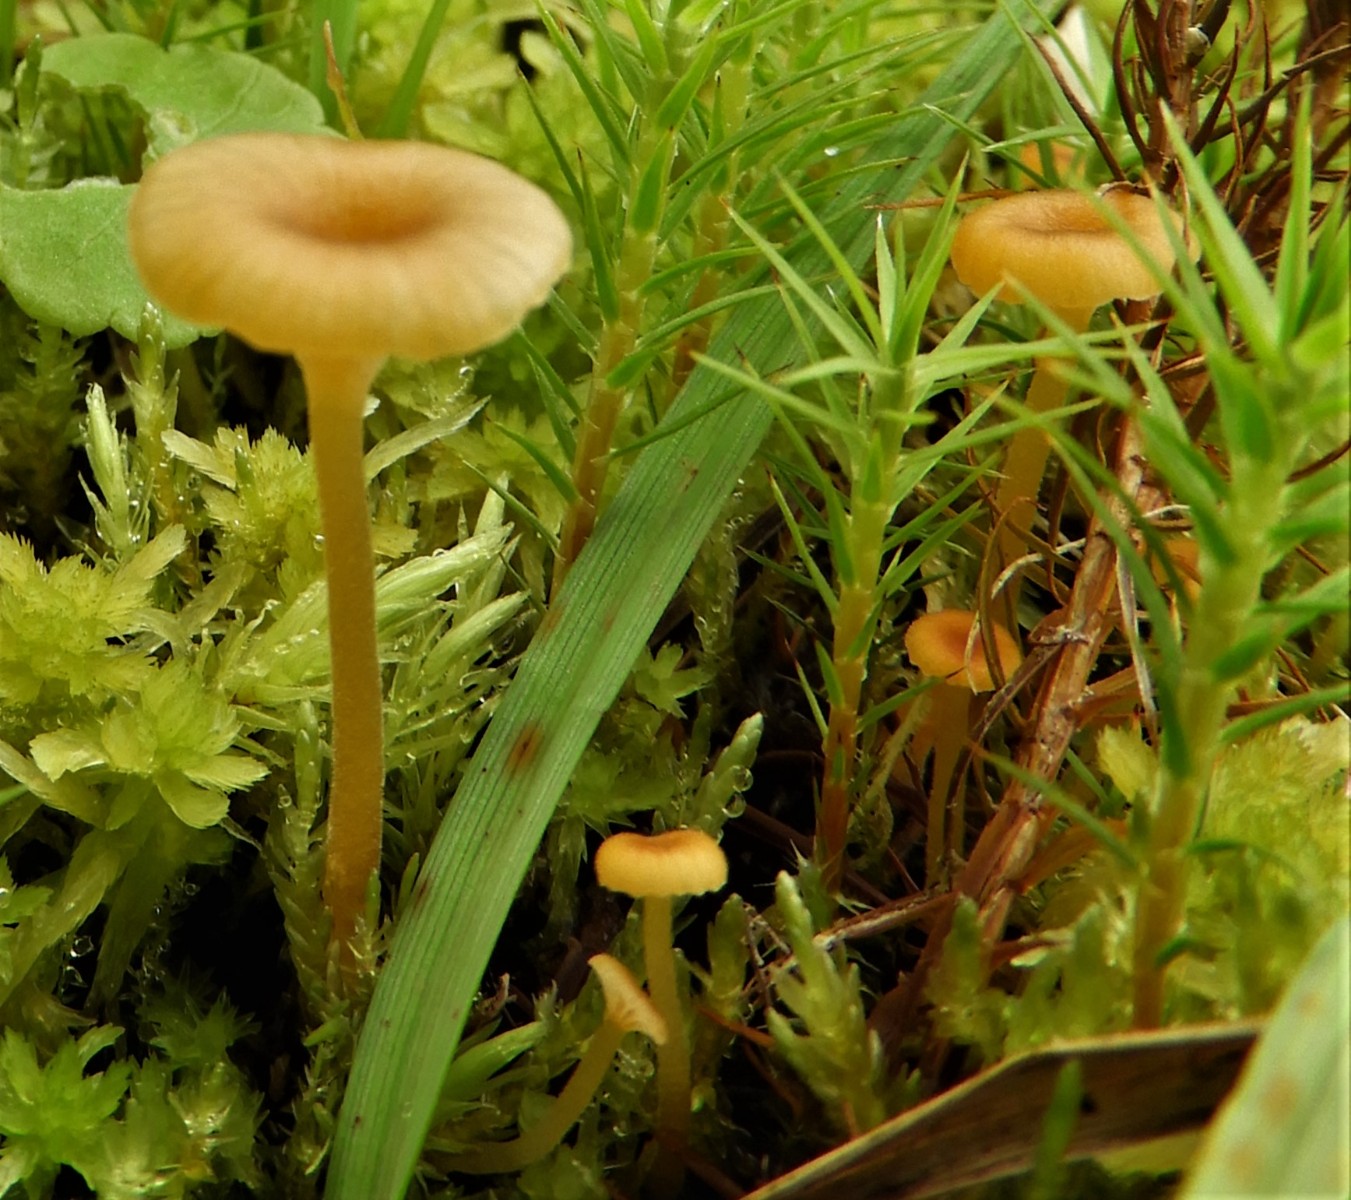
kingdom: Fungi
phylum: Basidiomycota
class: Agaricomycetes
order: Hymenochaetales
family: Rickenellaceae
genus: Rickenella
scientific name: Rickenella fibula
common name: orange mosnavlehat
